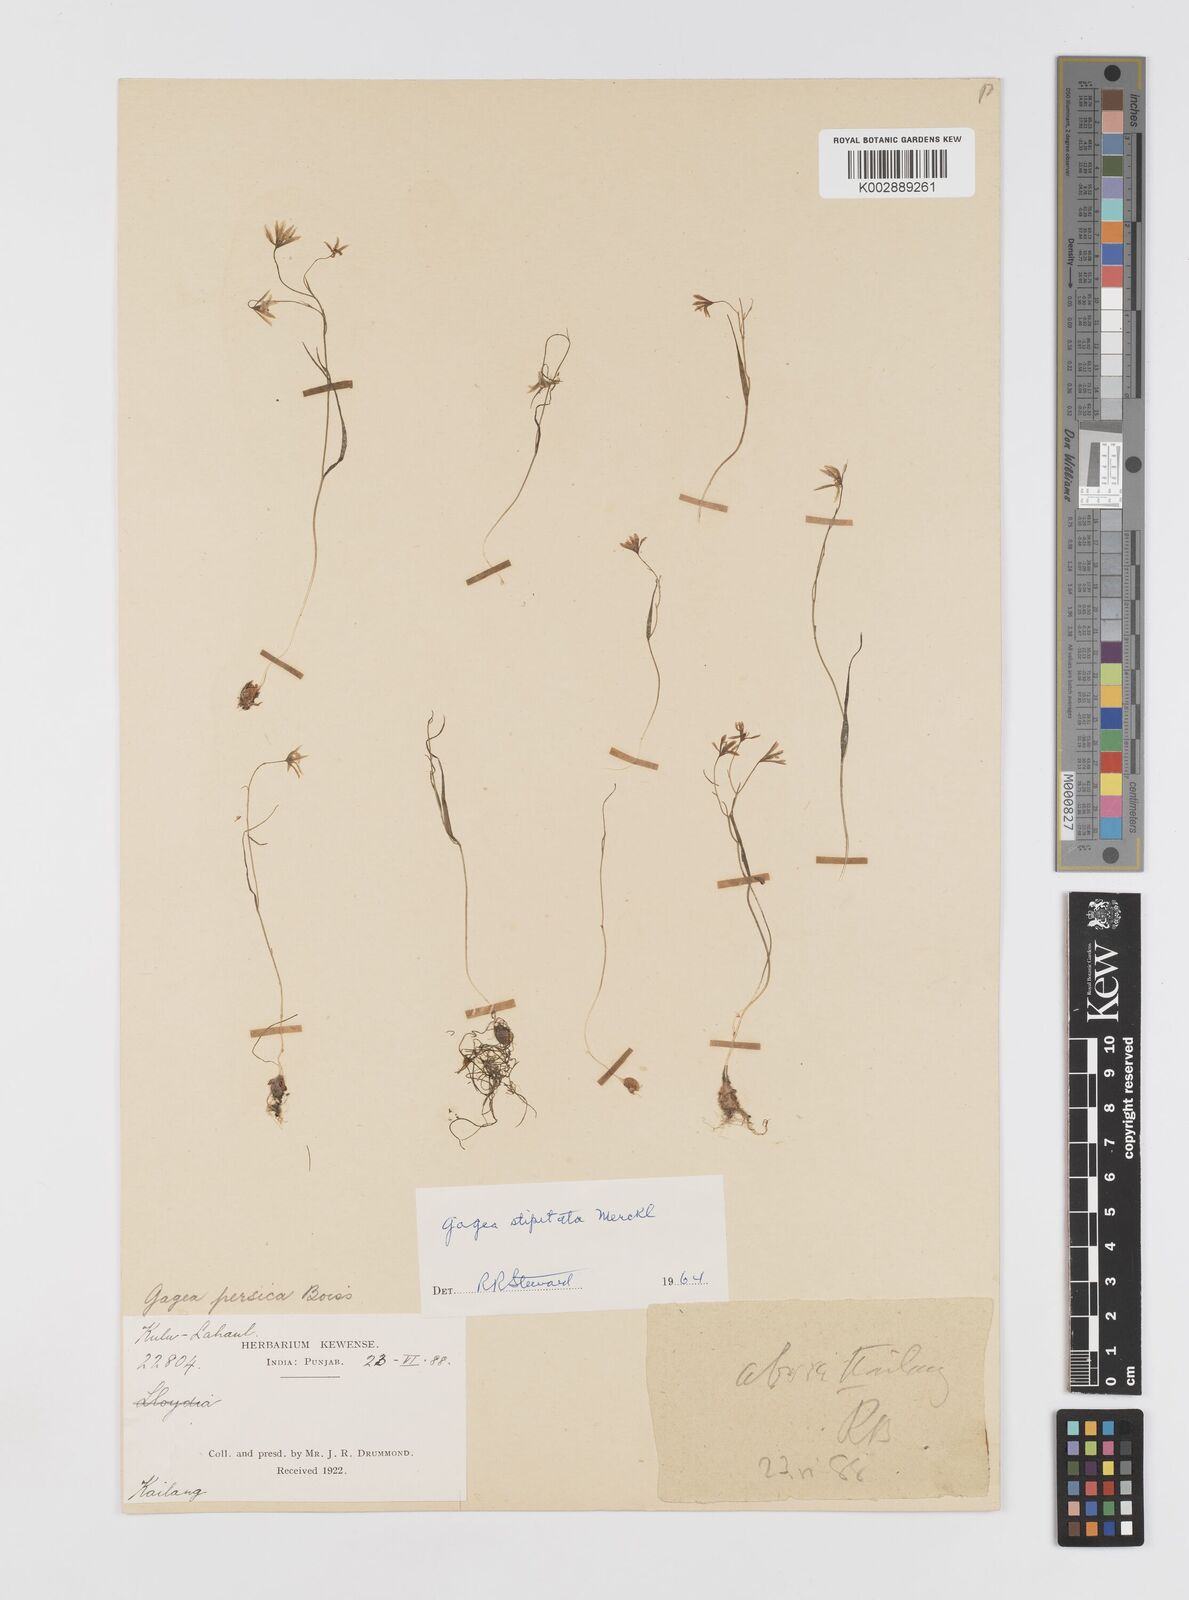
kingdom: Plantae
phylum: Tracheophyta
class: Liliopsida
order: Liliales
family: Liliaceae
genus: Gagea
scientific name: Gagea kunawurensis
